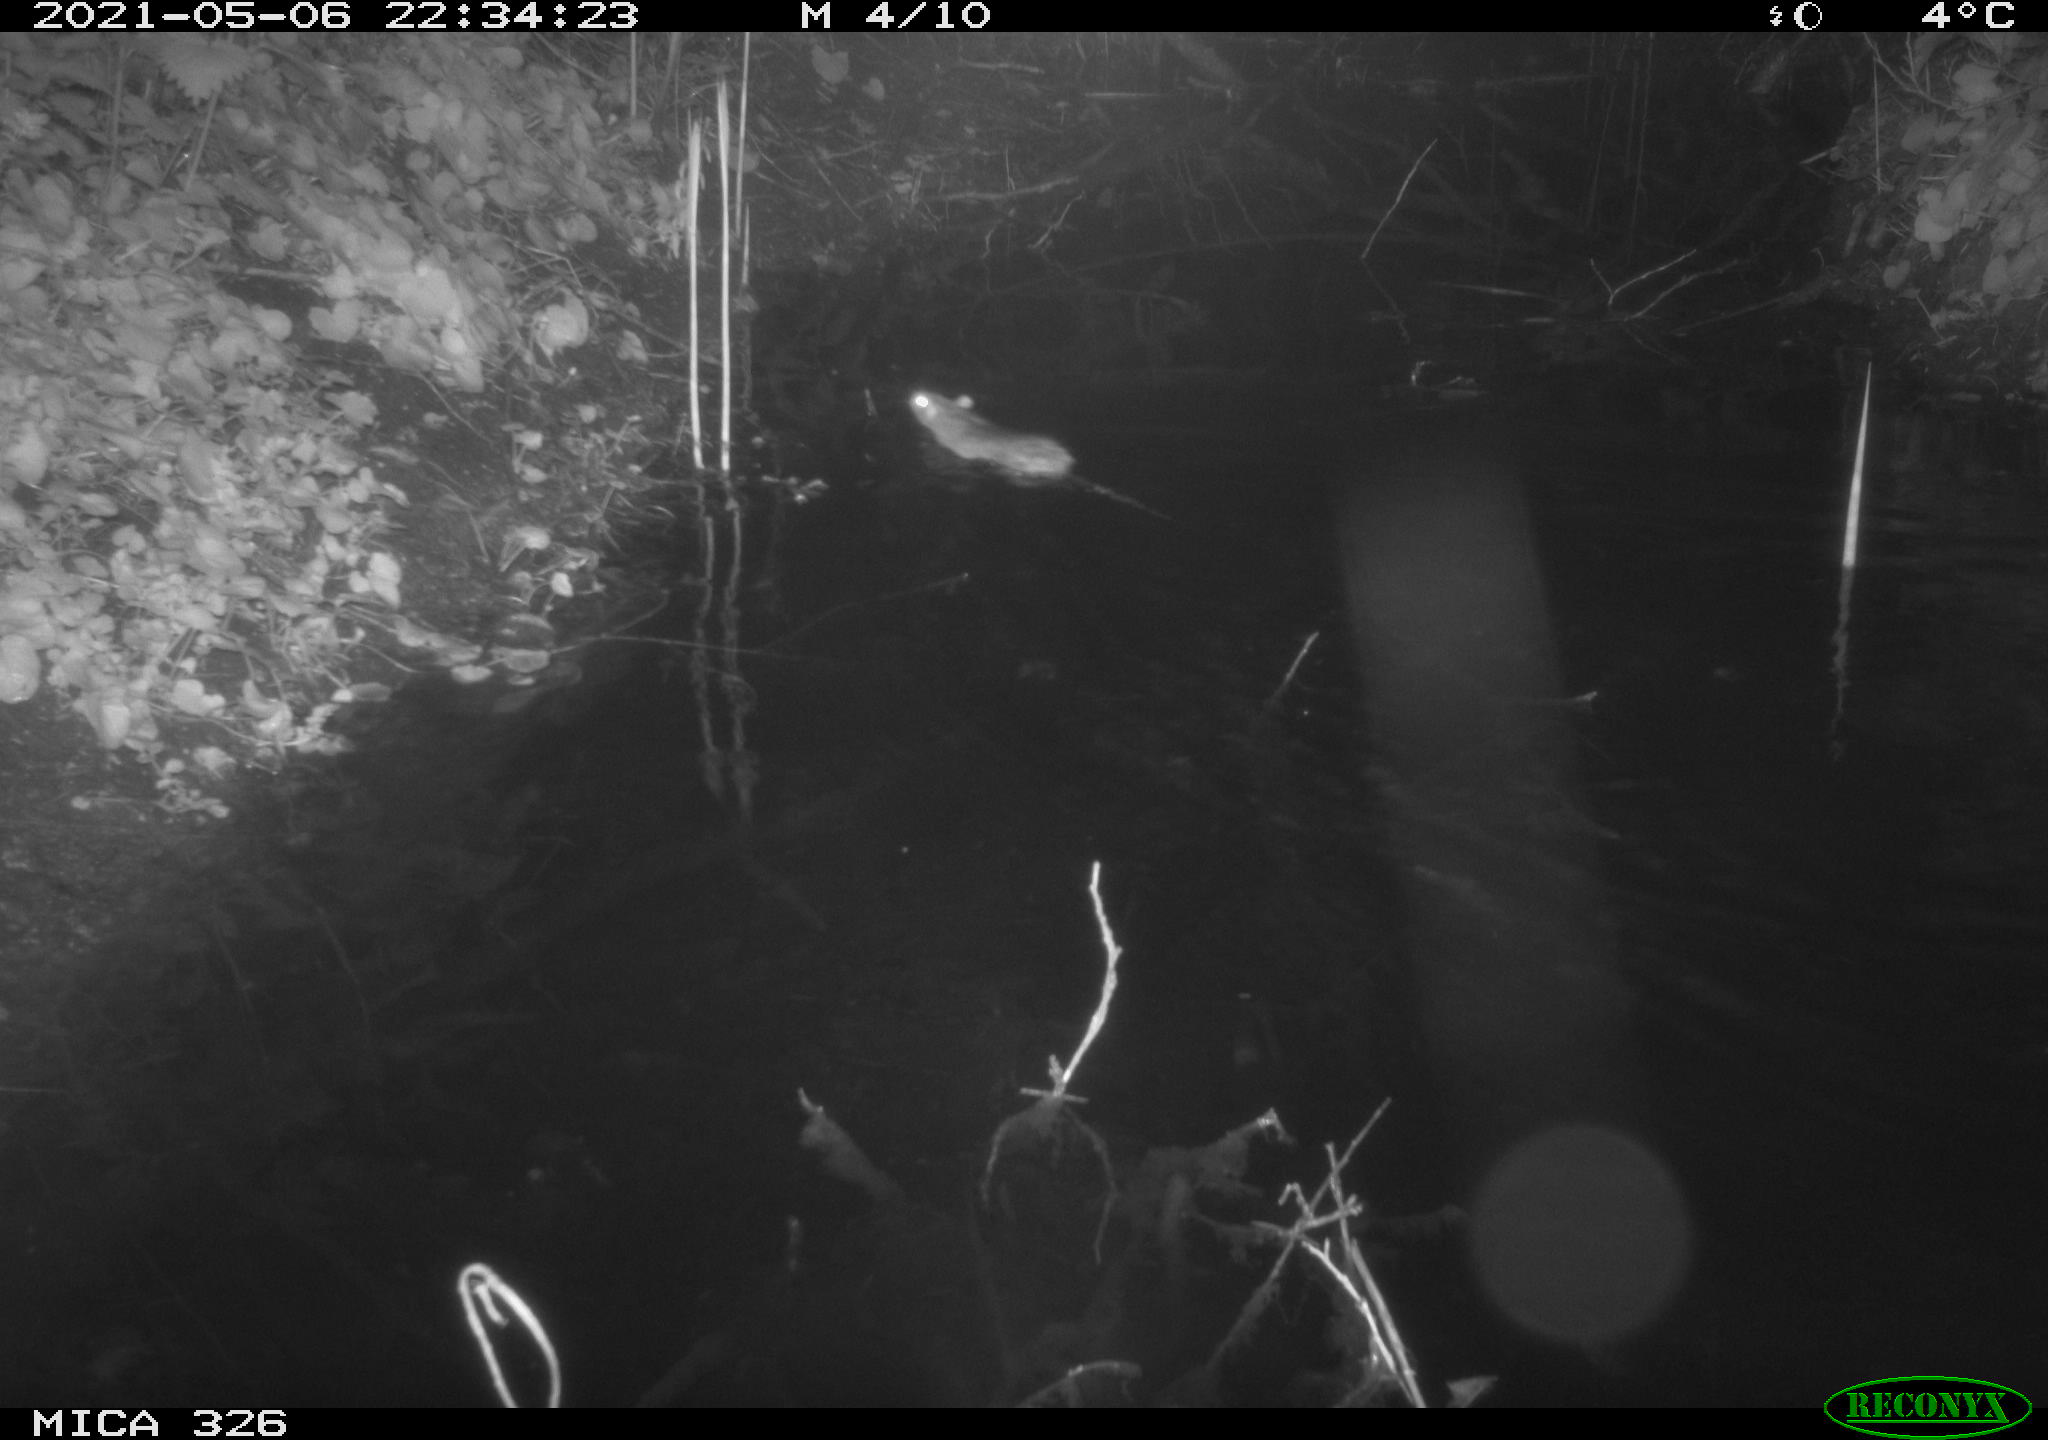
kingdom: Animalia
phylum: Chordata
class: Mammalia
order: Rodentia
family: Muridae
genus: Rattus
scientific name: Rattus norvegicus
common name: Brown rat
